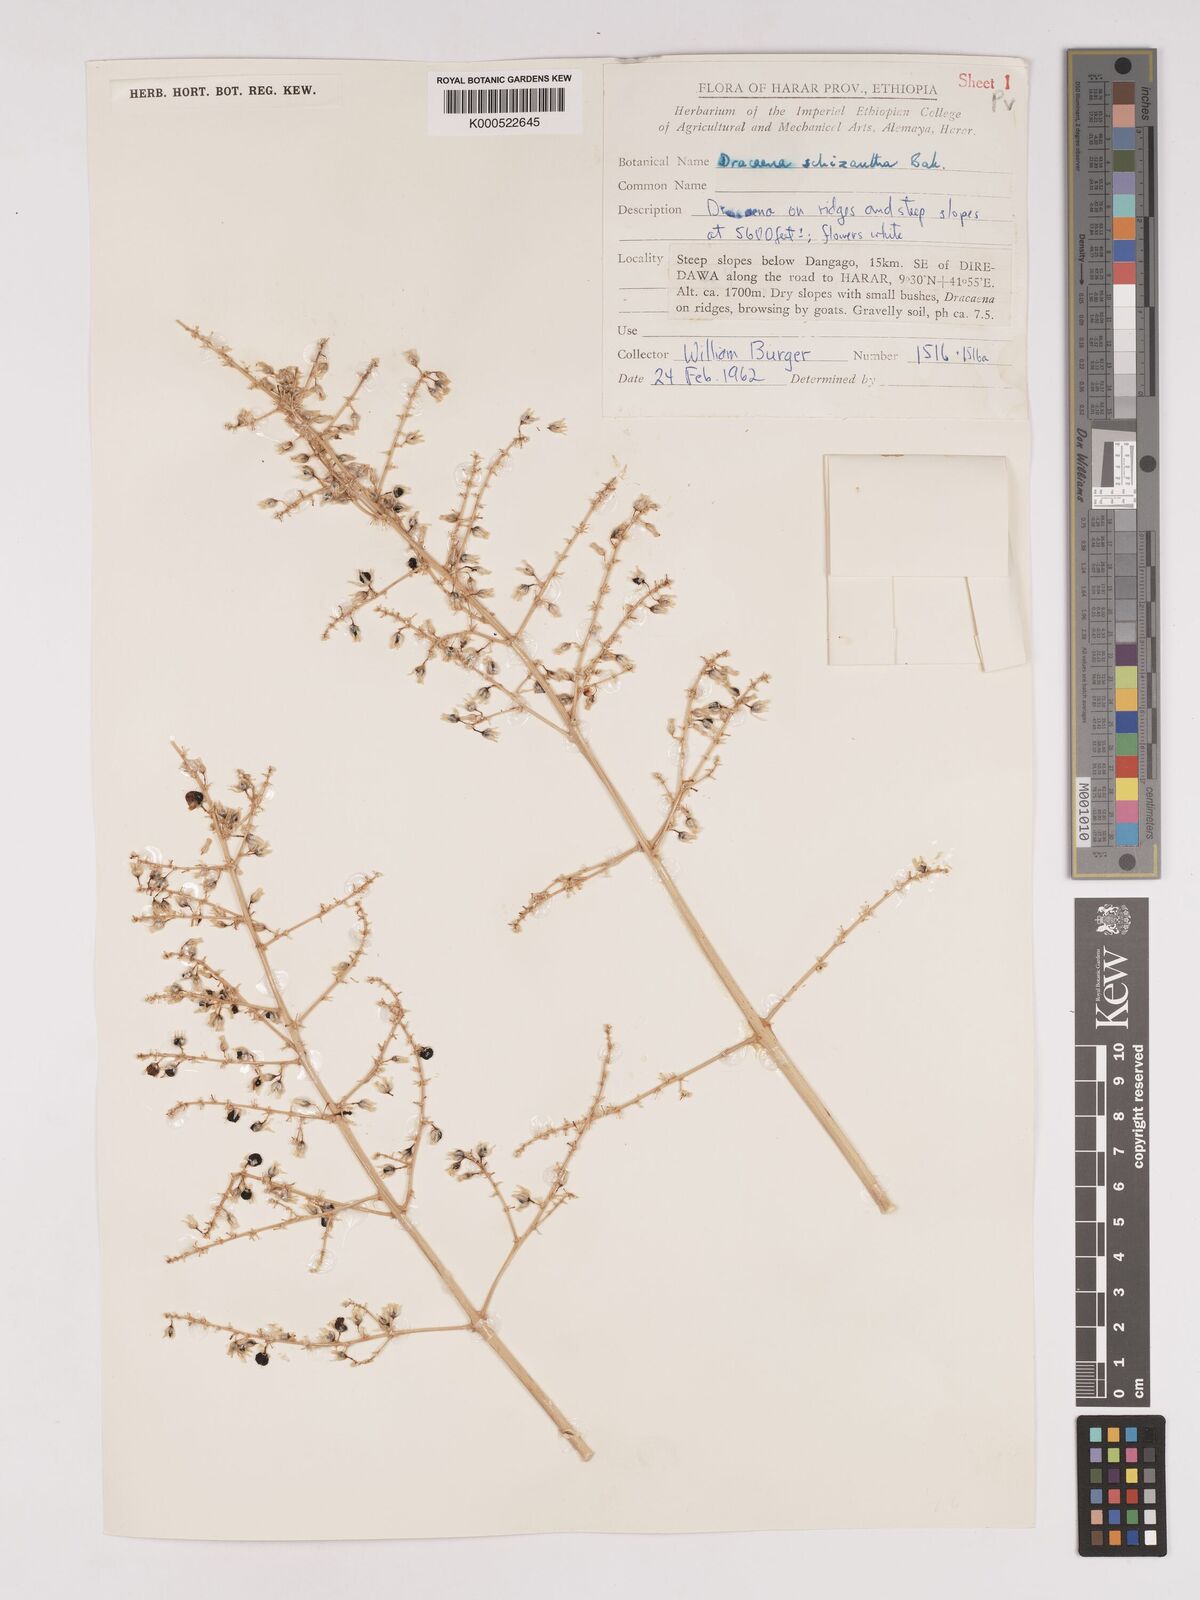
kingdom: Plantae
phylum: Tracheophyta
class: Liliopsida
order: Asparagales
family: Asparagaceae
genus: Dracaena
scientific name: Dracaena ombet
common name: Gabal elba dragon tree
